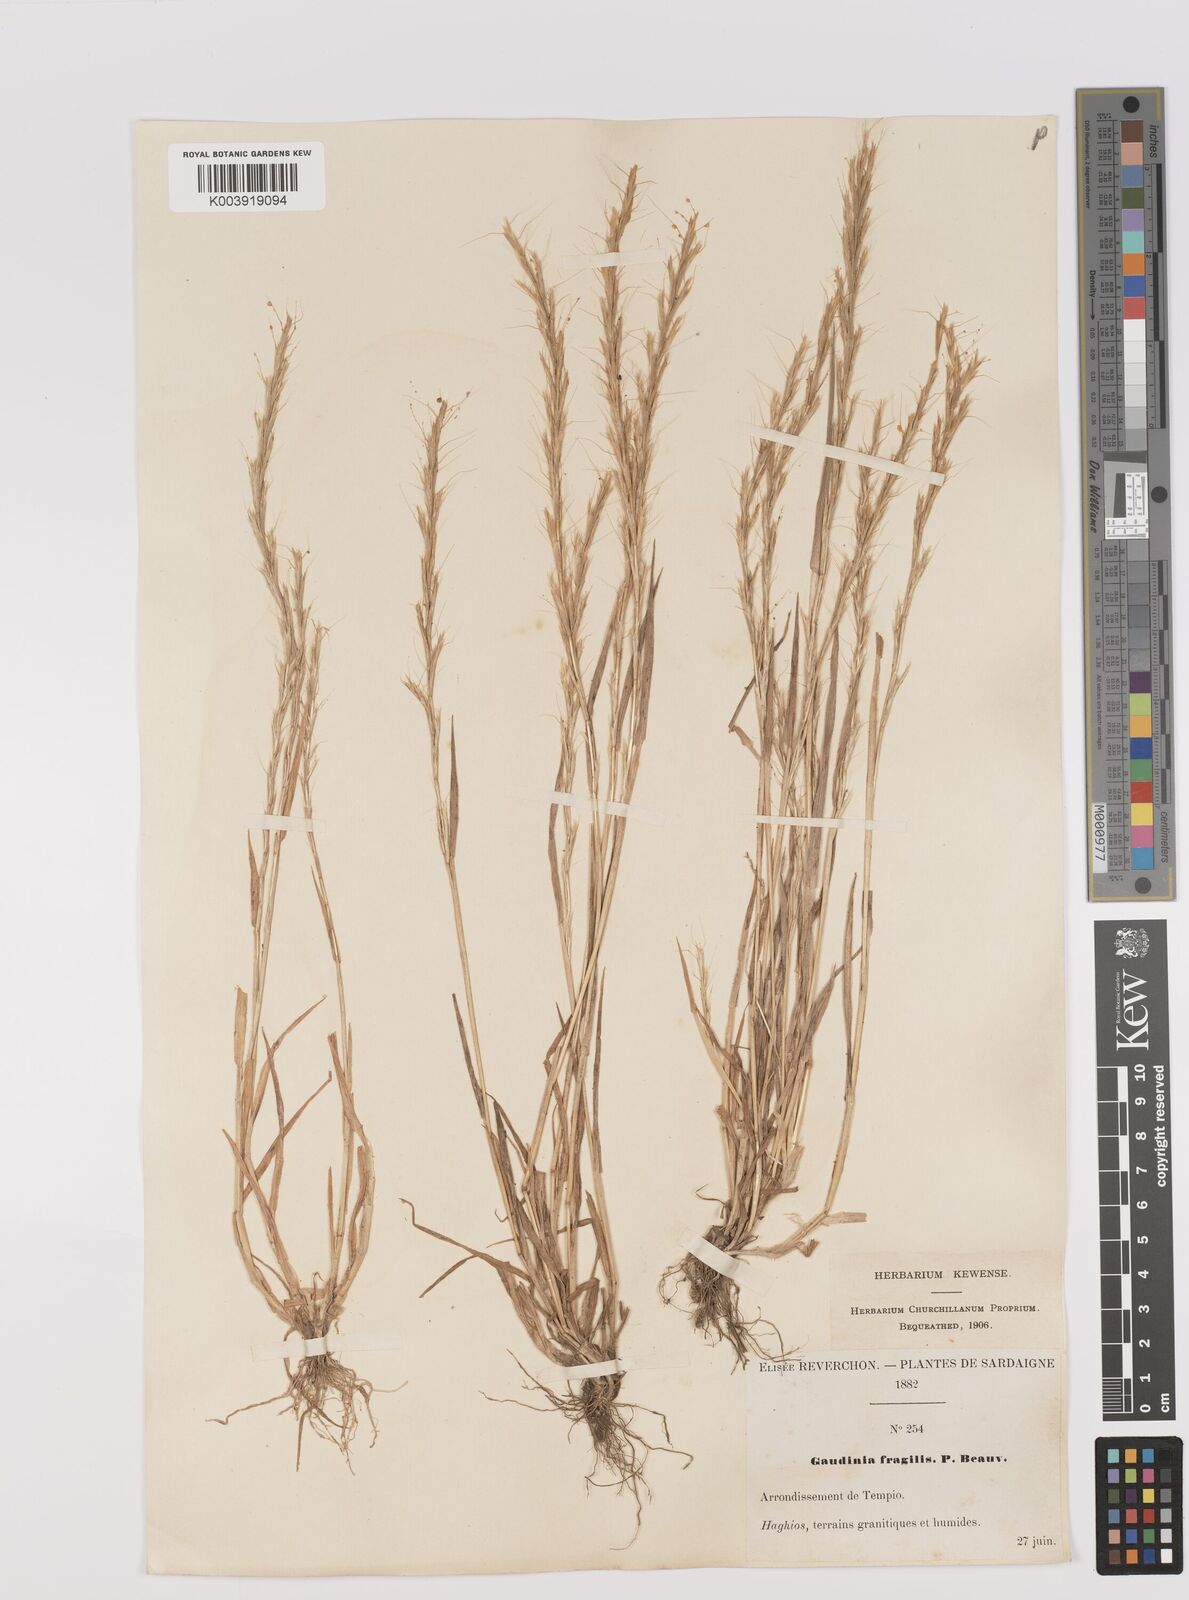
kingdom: Plantae
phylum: Tracheophyta
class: Liliopsida
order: Poales
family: Poaceae
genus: Gaudinia
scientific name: Gaudinia fragilis
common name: French oat-grass
